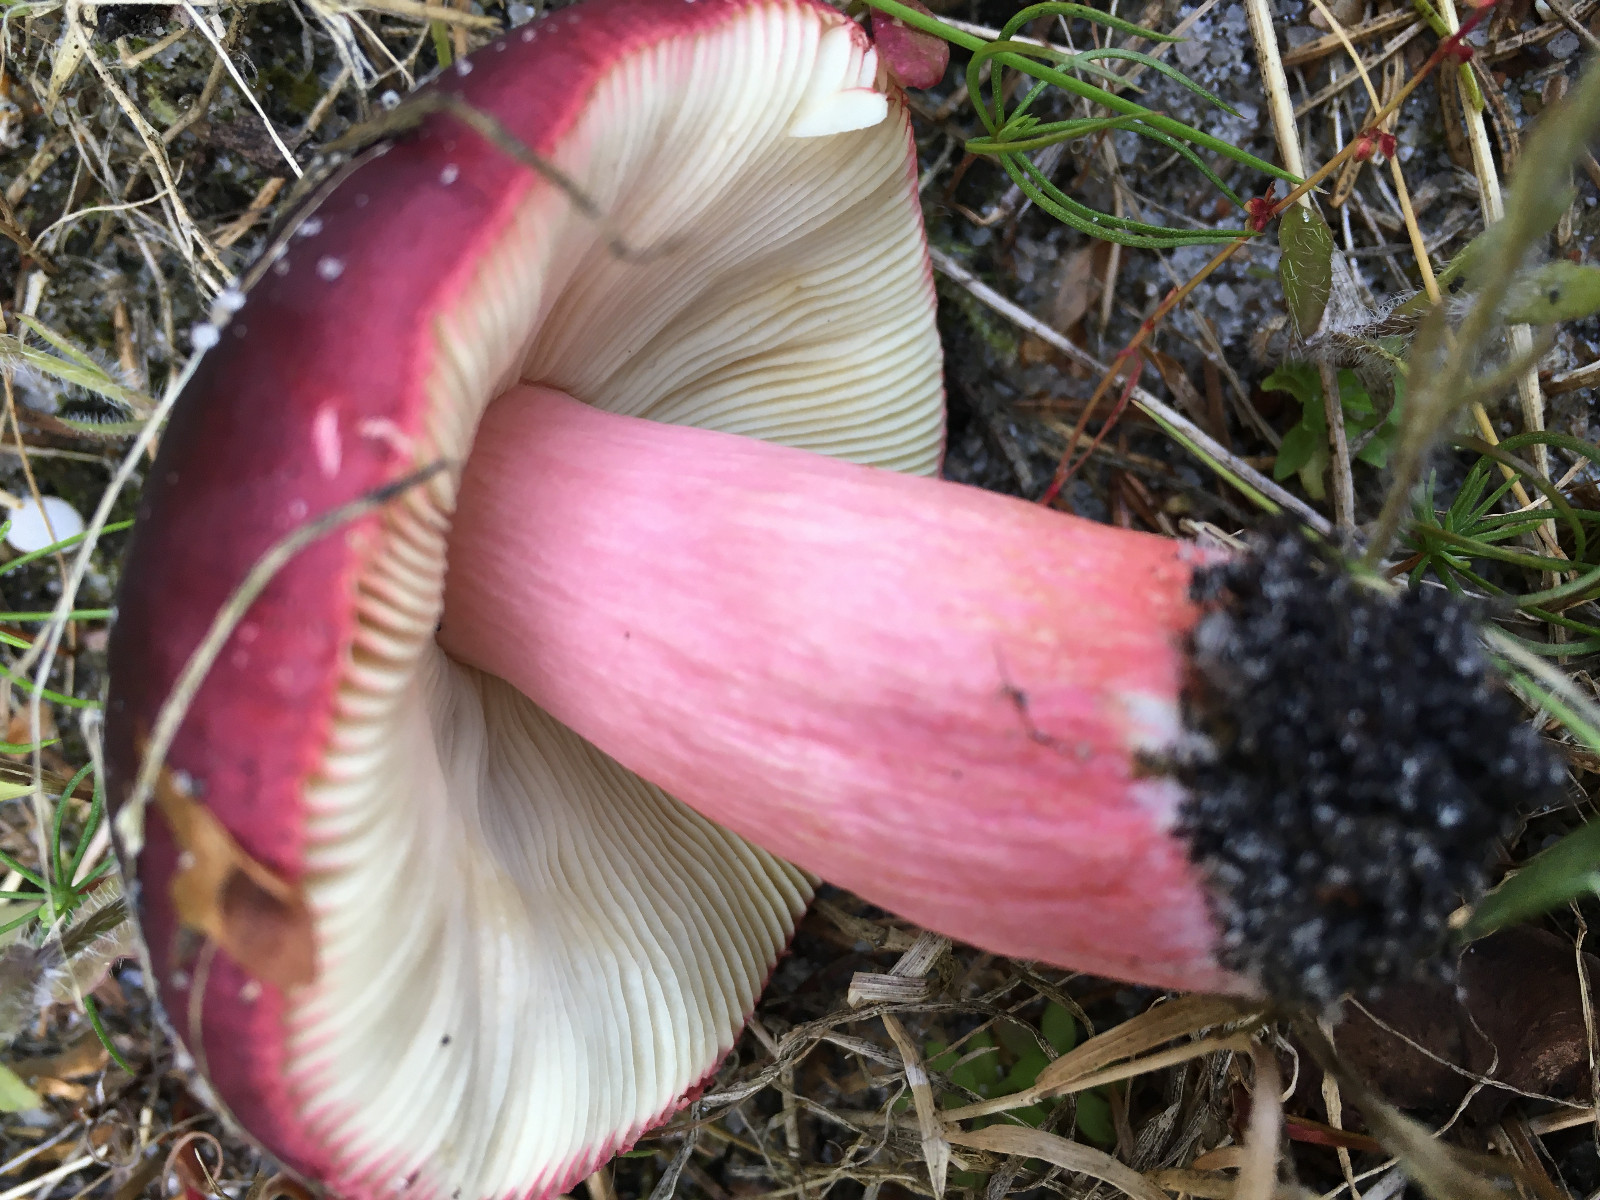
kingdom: Fungi
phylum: Basidiomycota
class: Agaricomycetes
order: Russulales
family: Russulaceae
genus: Russula
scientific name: Russula xerampelina
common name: hummer-skørhat
